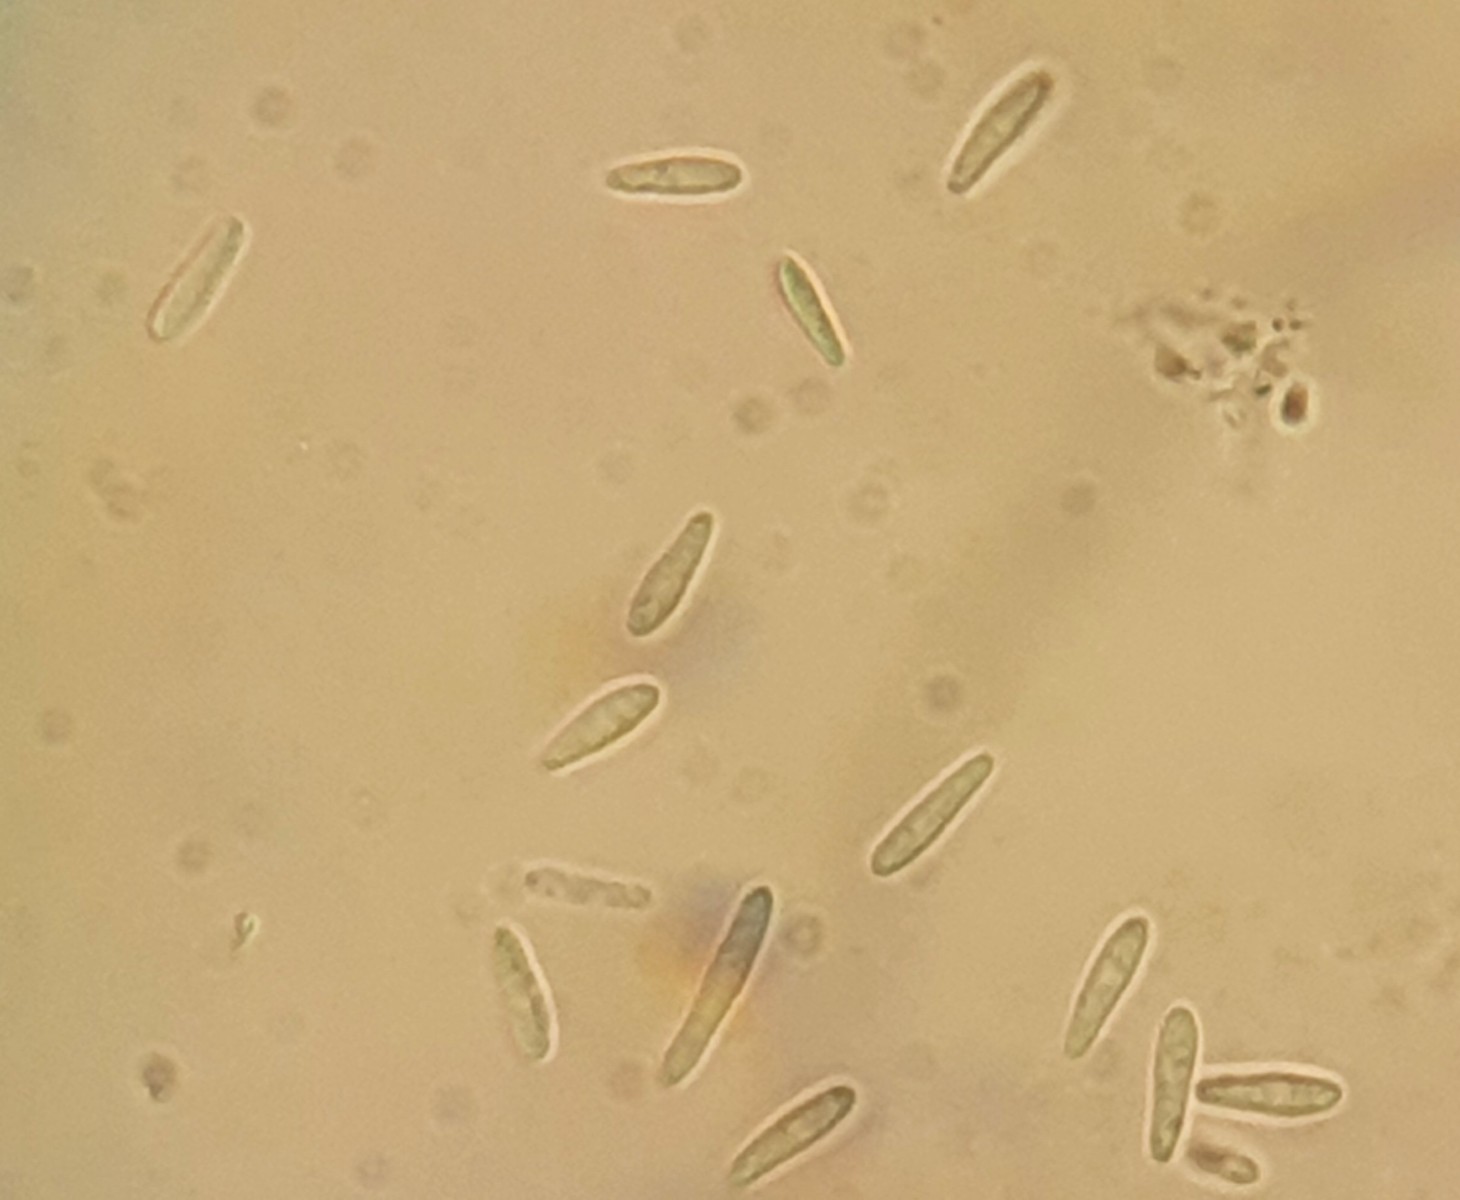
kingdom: Fungi
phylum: Ascomycota
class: Leotiomycetes
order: Helotiales
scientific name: Helotiales
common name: stilkskiveordenen
